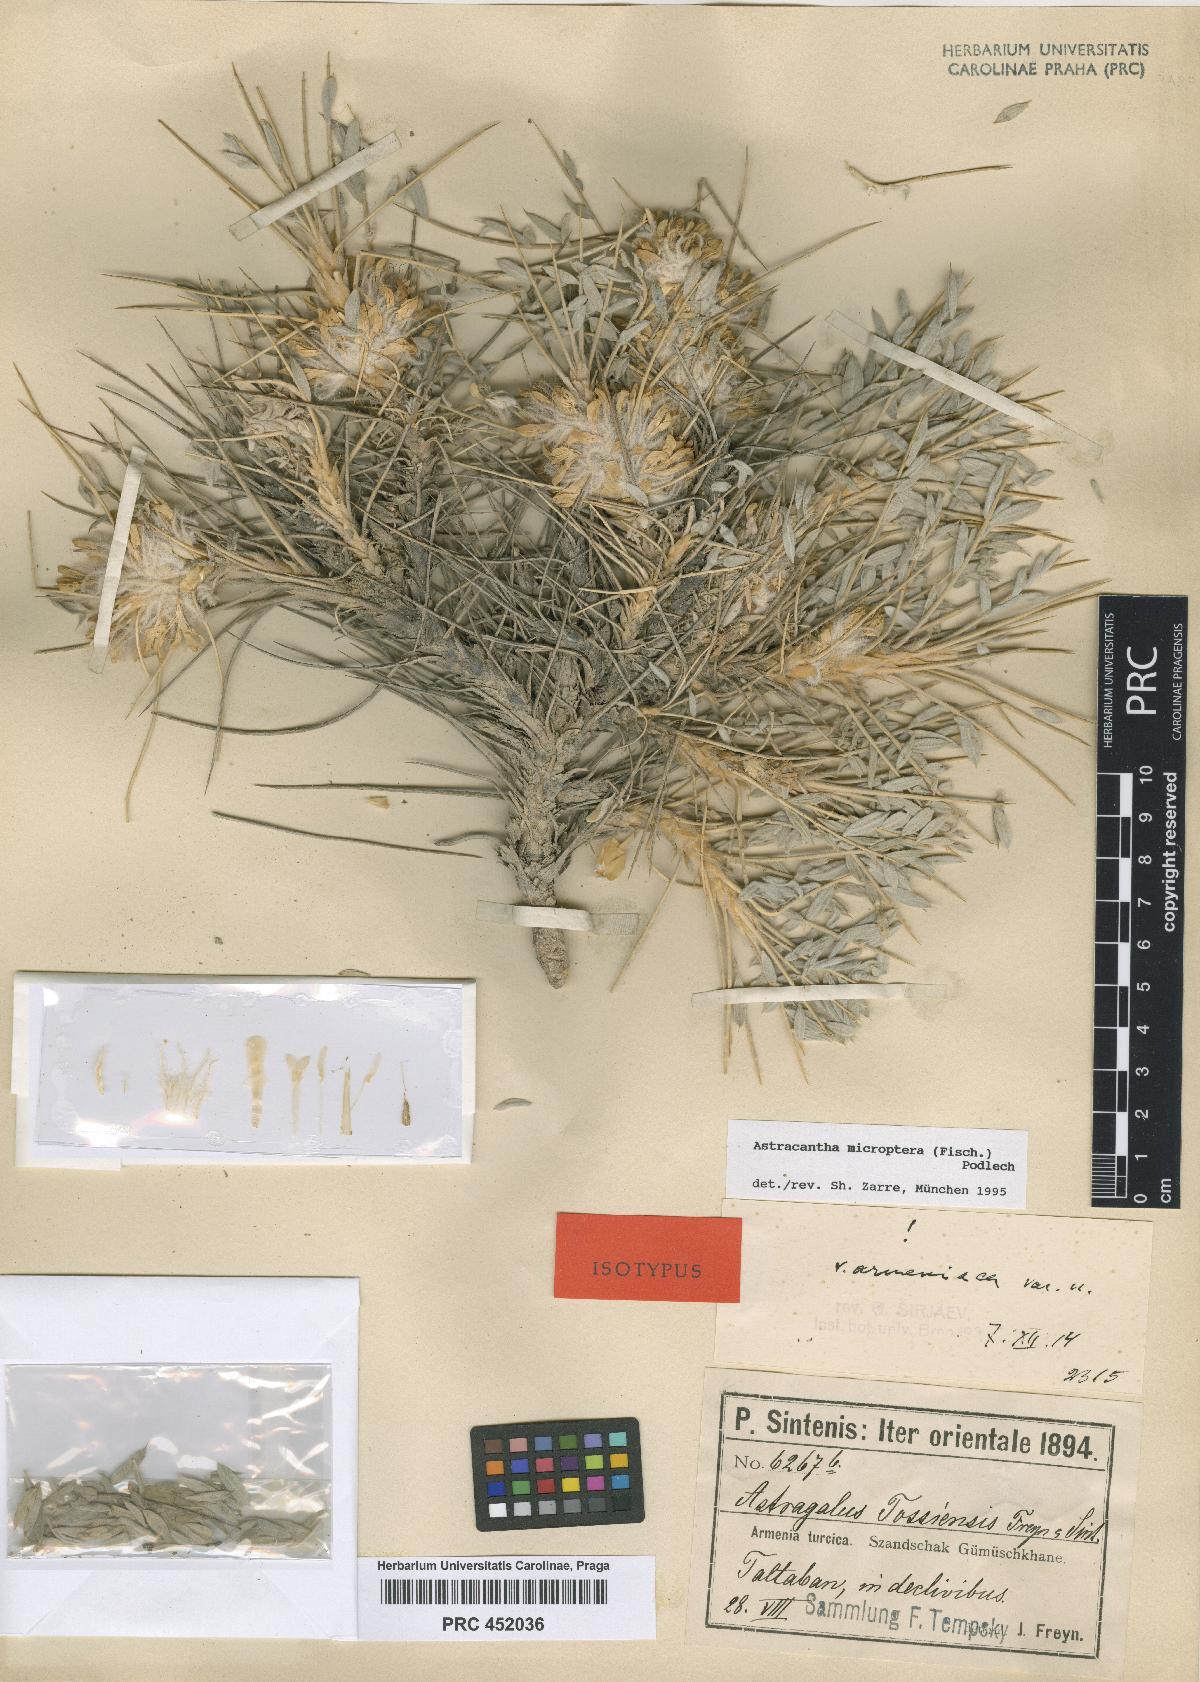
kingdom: Plantae
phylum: Tracheophyta
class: Magnoliopsida
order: Fabales
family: Fabaceae
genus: Astragalus
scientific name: Astragalus micropterus
